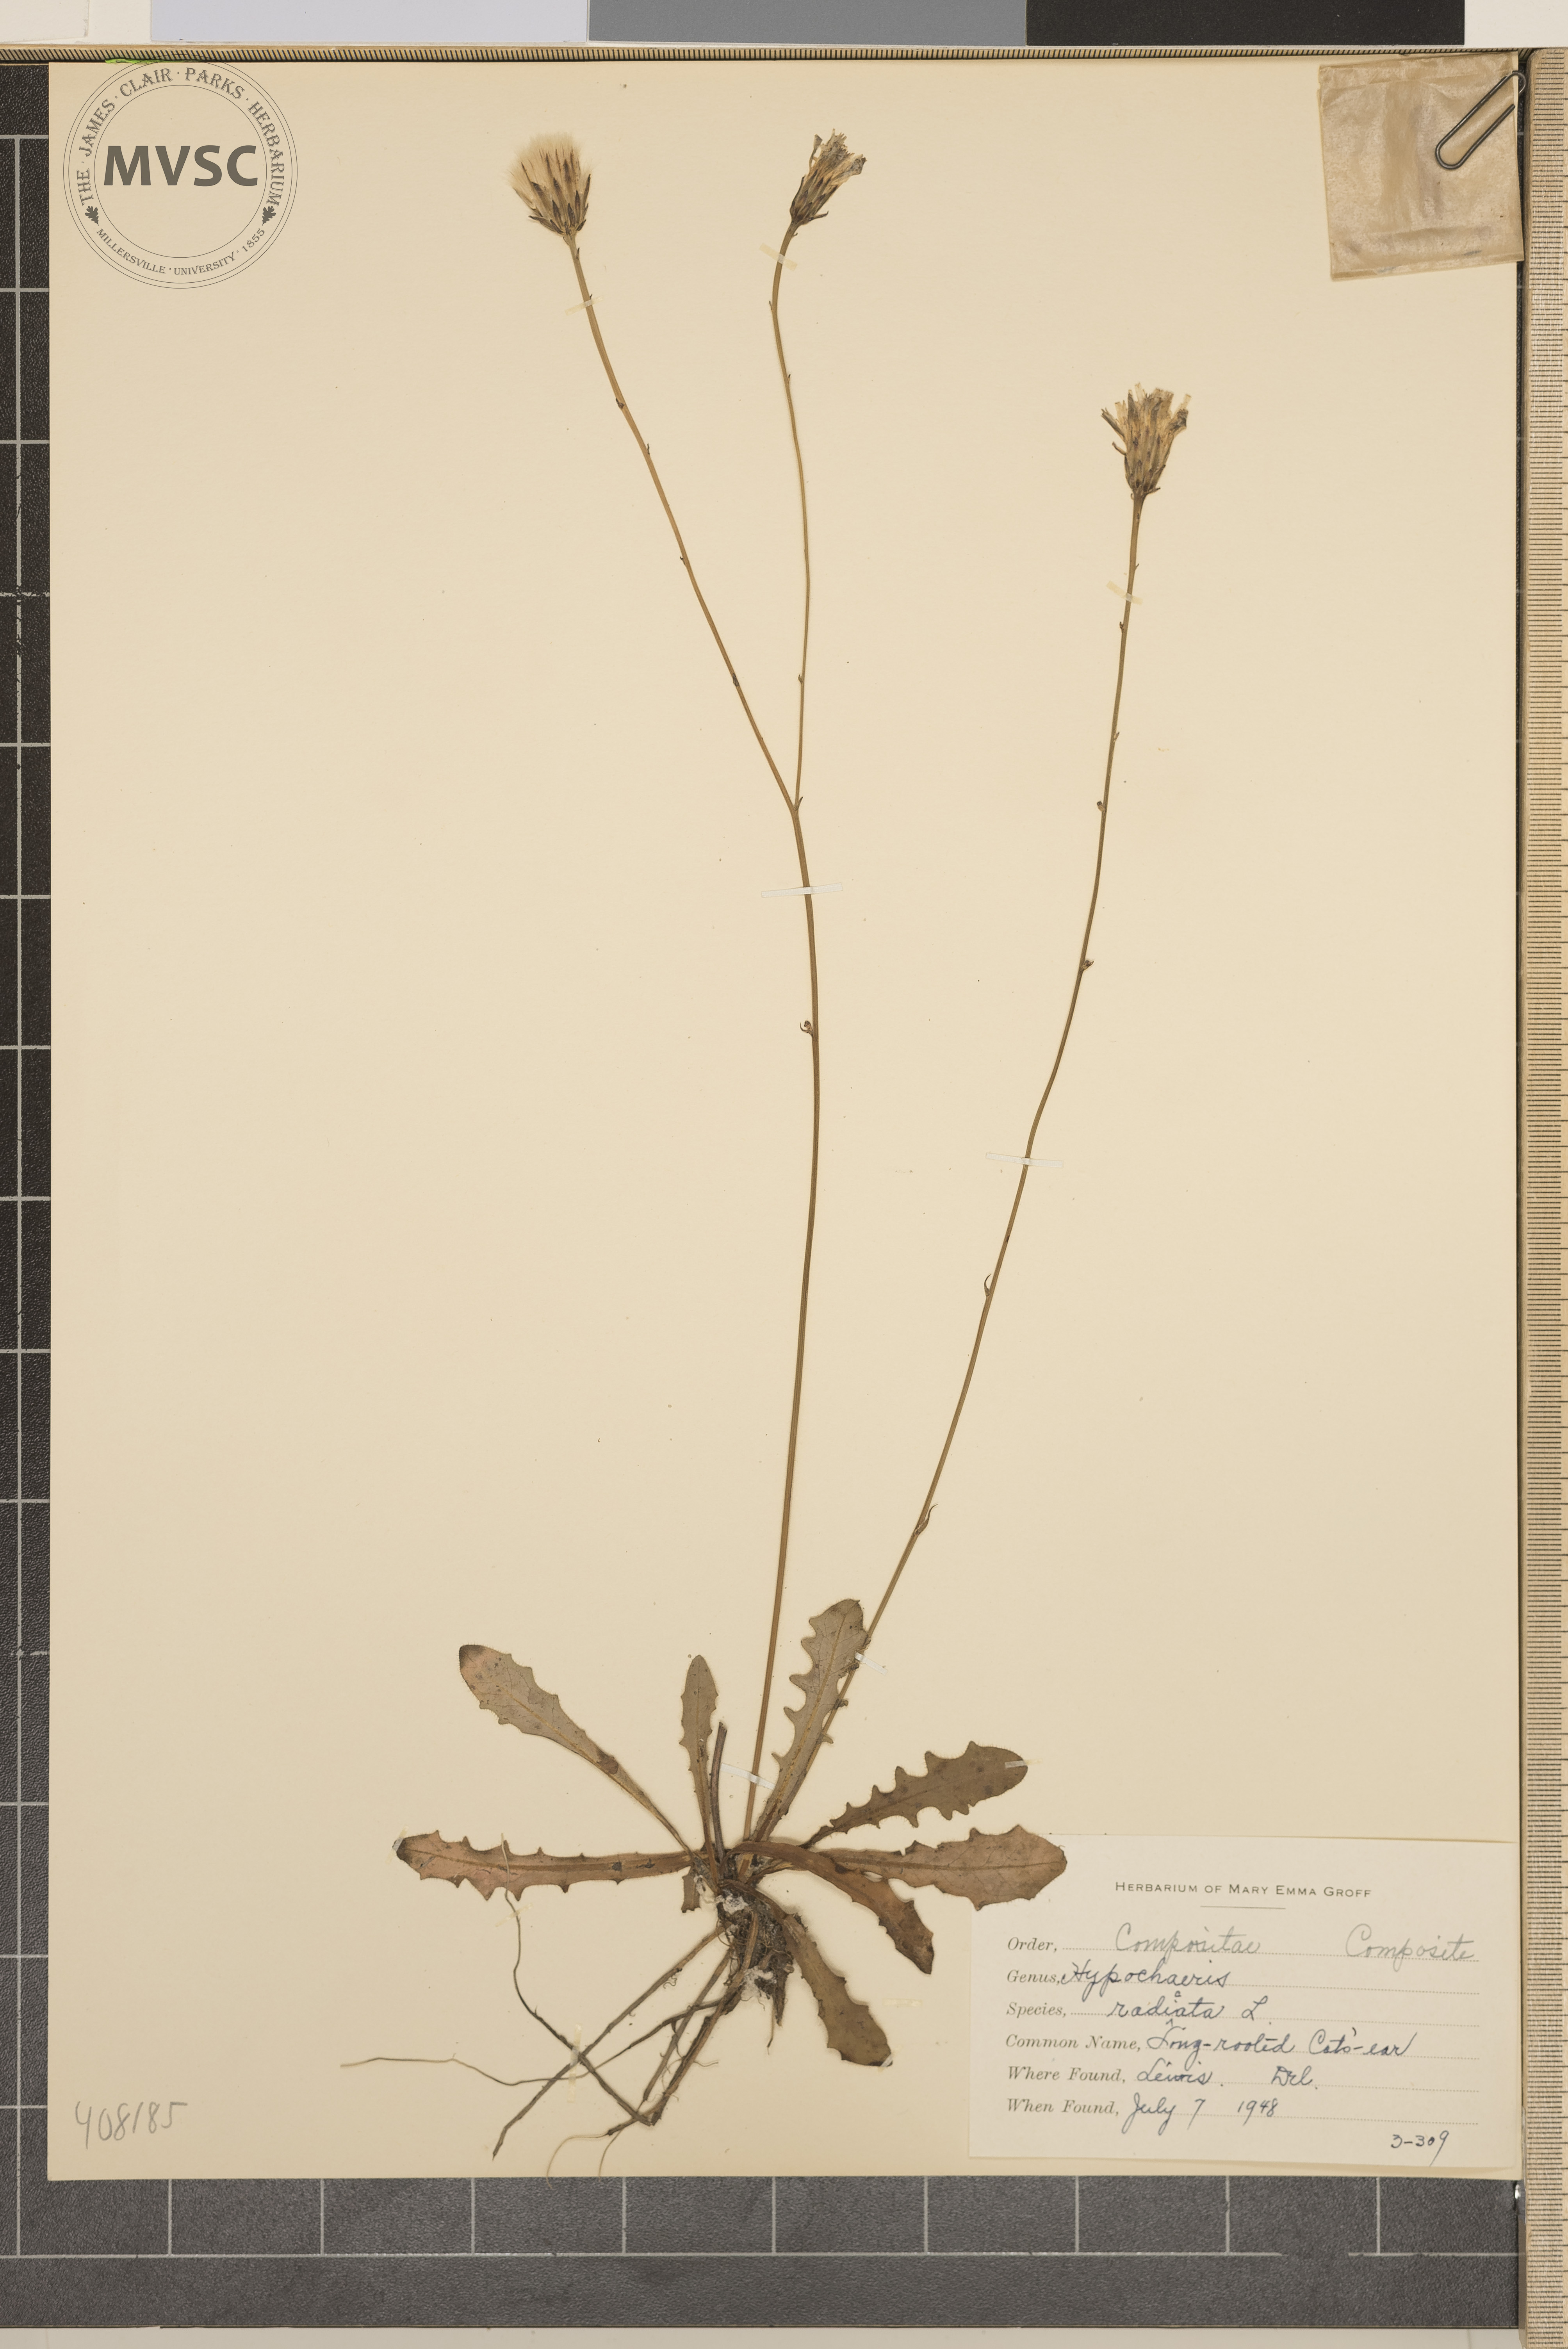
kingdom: Plantae
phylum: Tracheophyta
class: Magnoliopsida
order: Asterales
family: Asteraceae
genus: Hypochaeris
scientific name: Hypochaeris radicata
